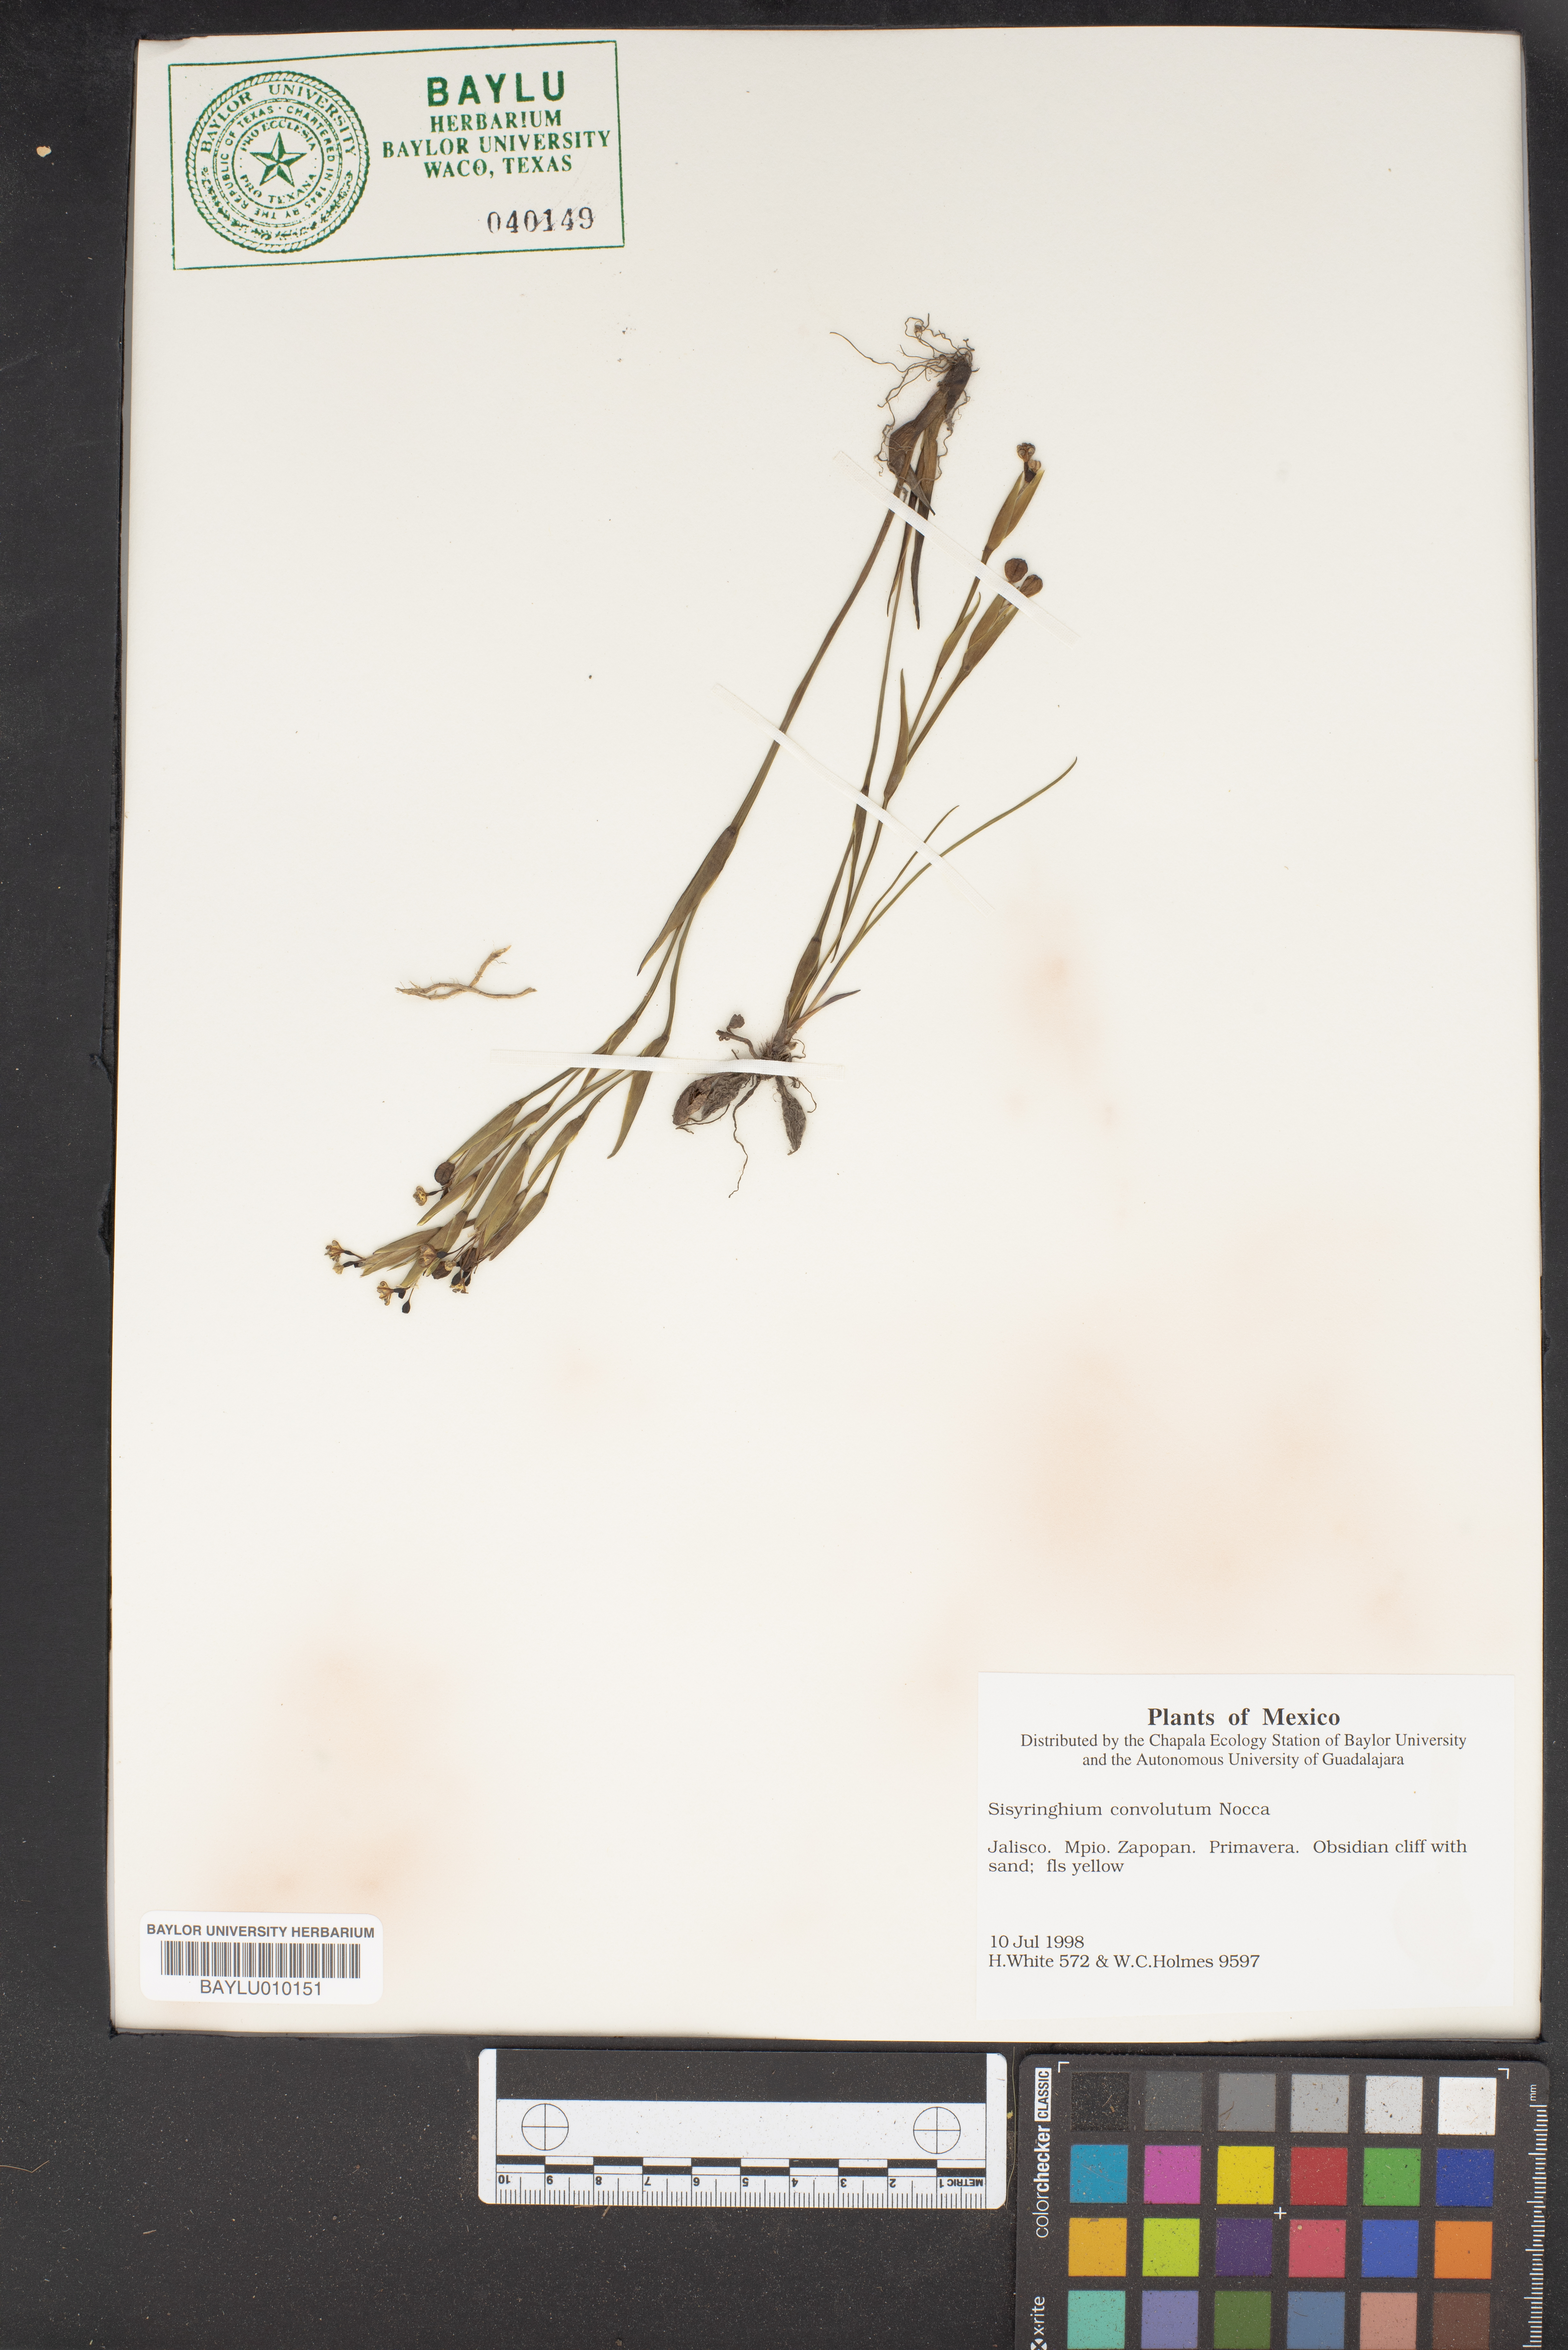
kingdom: Plantae
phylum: Tracheophyta
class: Liliopsida
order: Asparagales
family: Iridaceae
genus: Sisyrinchium
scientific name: Sisyrinchium convolutum
